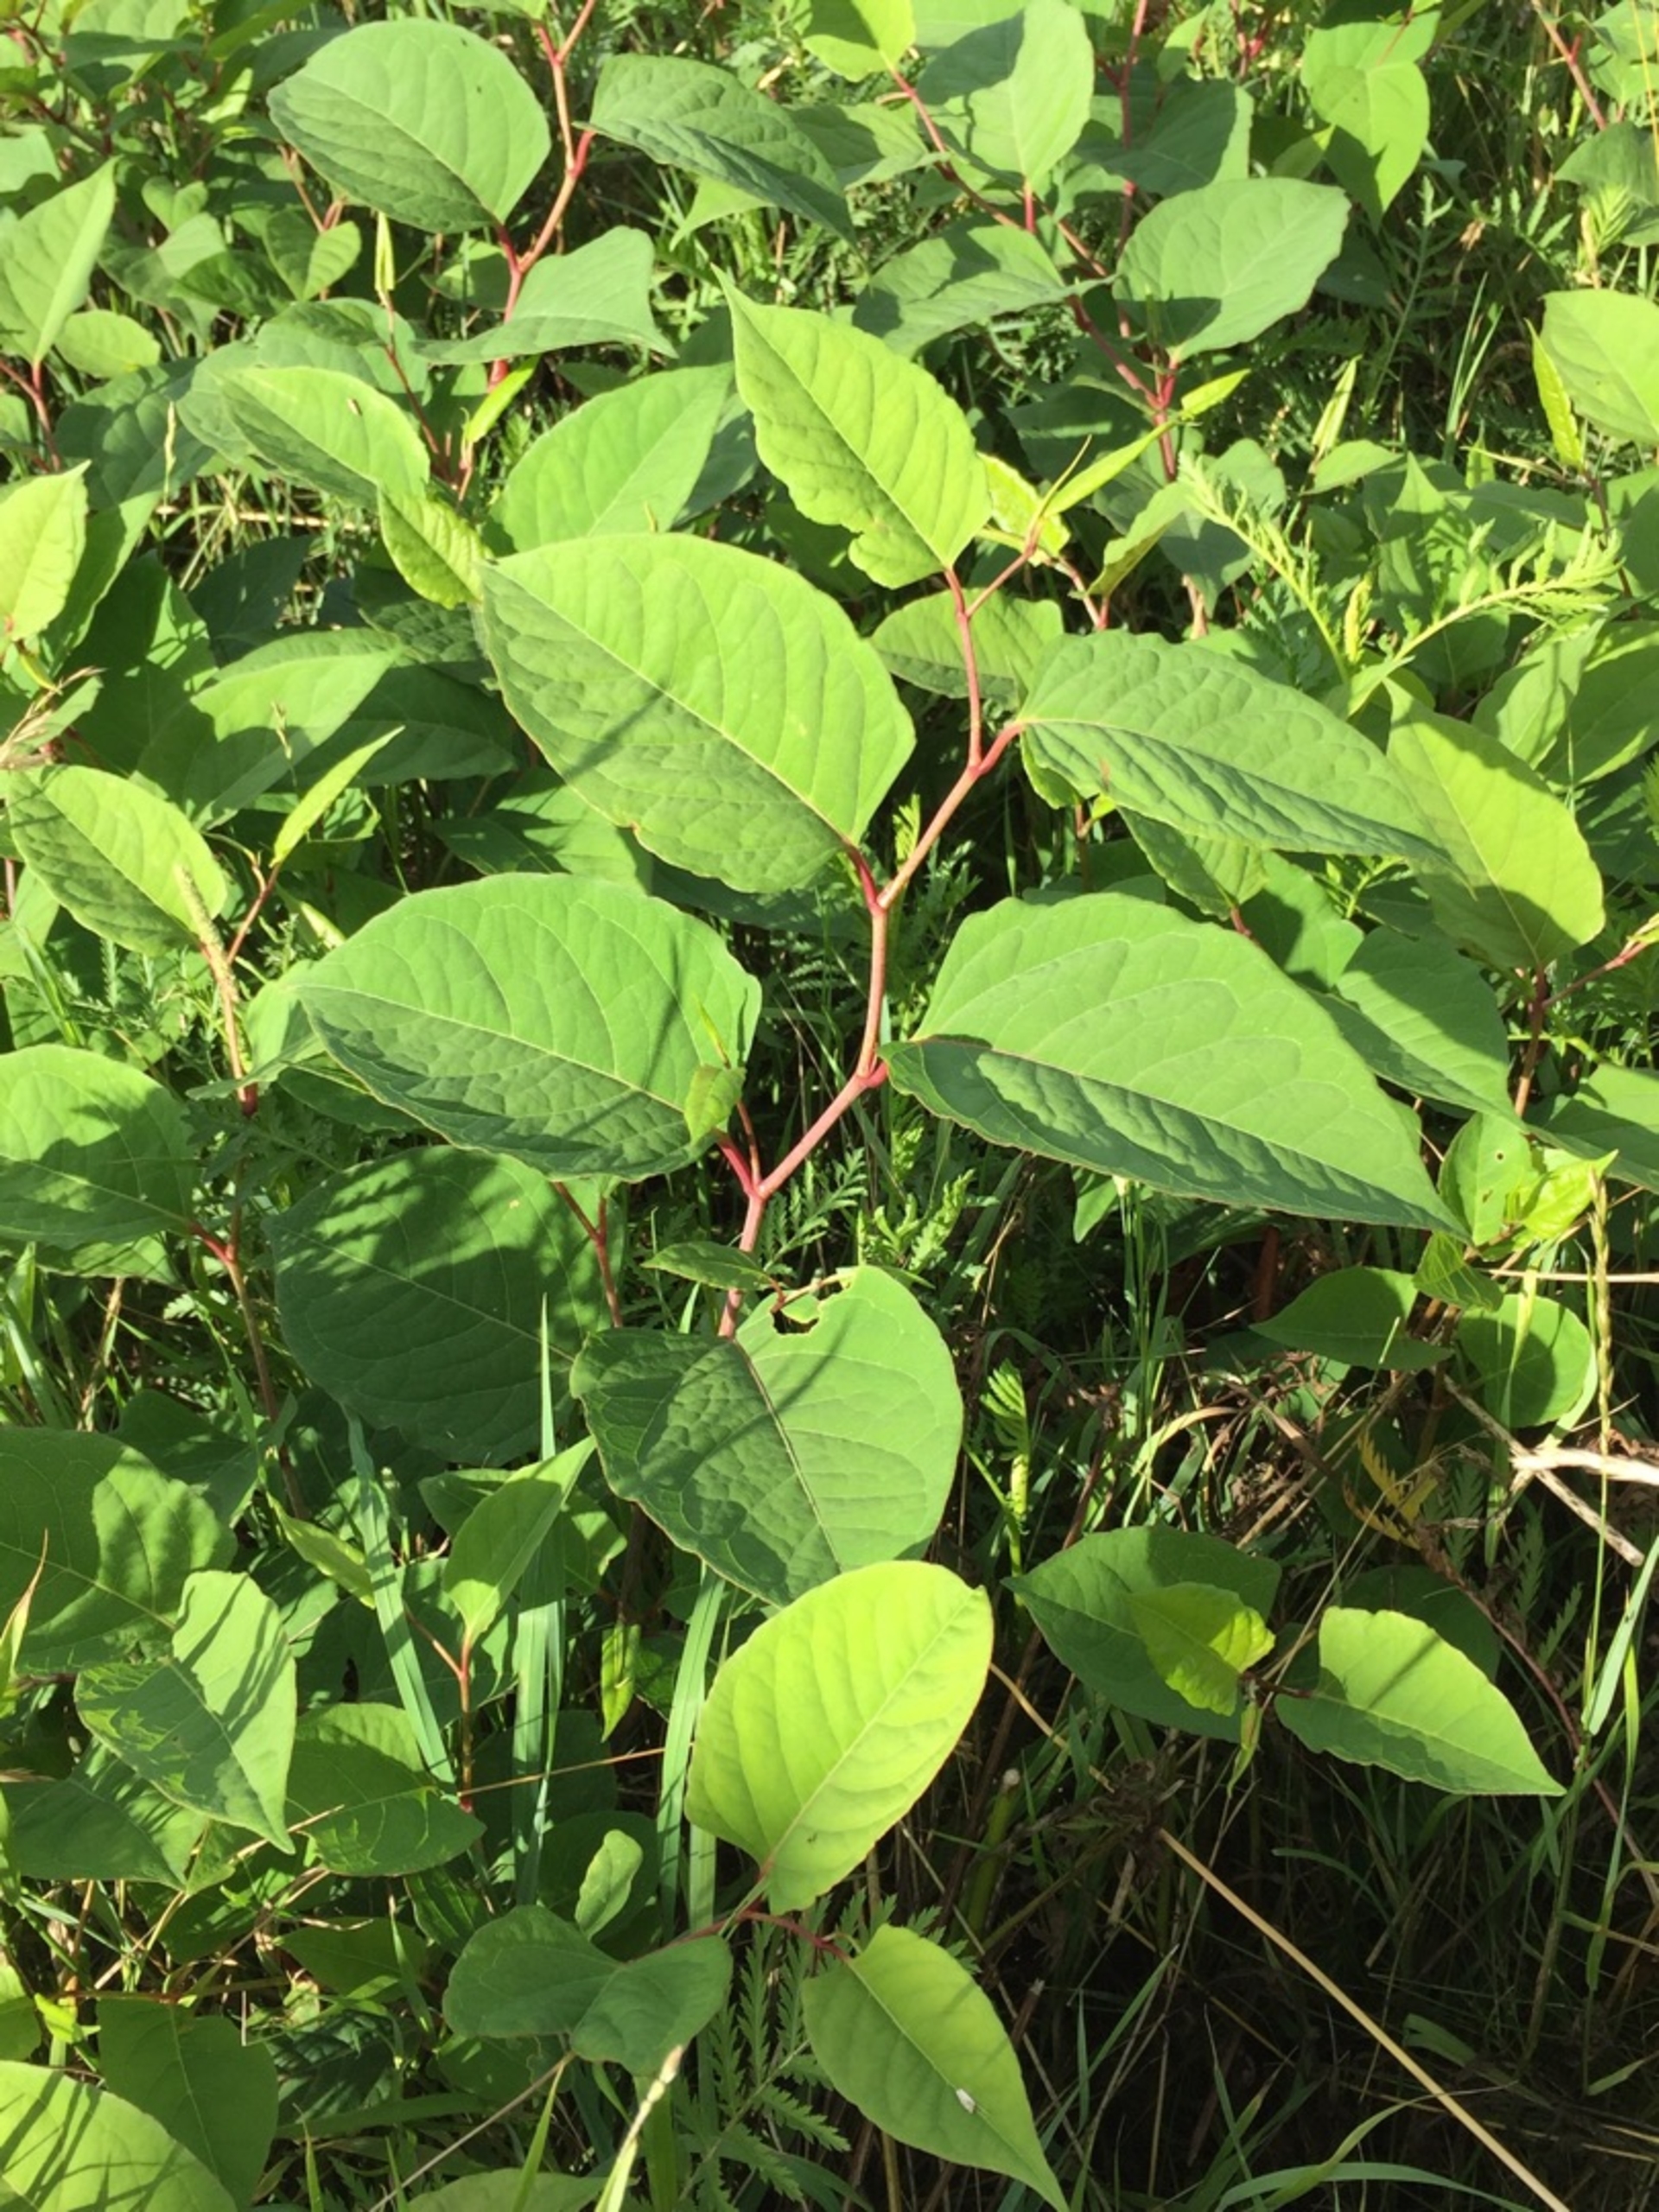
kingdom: Plantae
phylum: Tracheophyta
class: Magnoliopsida
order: Caryophyllales
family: Polygonaceae
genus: Reynoutria
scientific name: Reynoutria japonica
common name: Japan-pileurt
